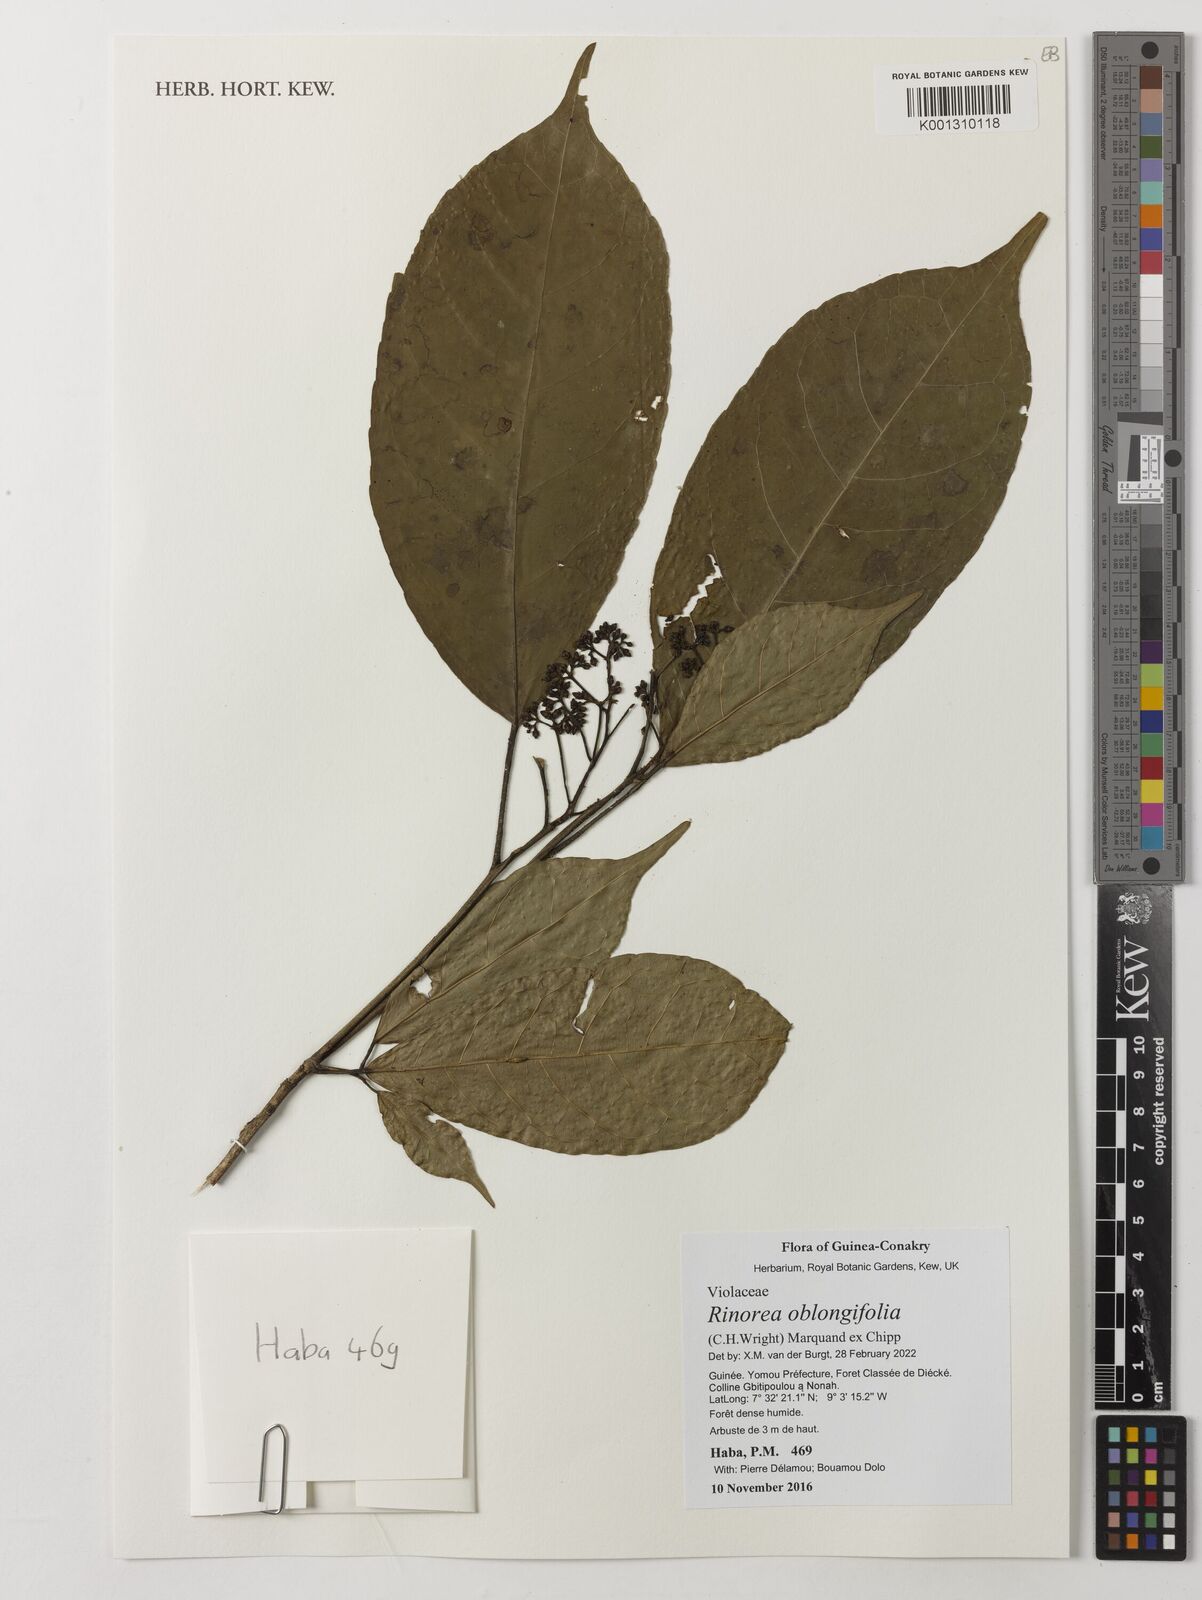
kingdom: Plantae
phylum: Tracheophyta
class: Magnoliopsida
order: Apiales
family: Pittosporaceae
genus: Marianthus
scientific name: Marianthus coeruleopunctatus
